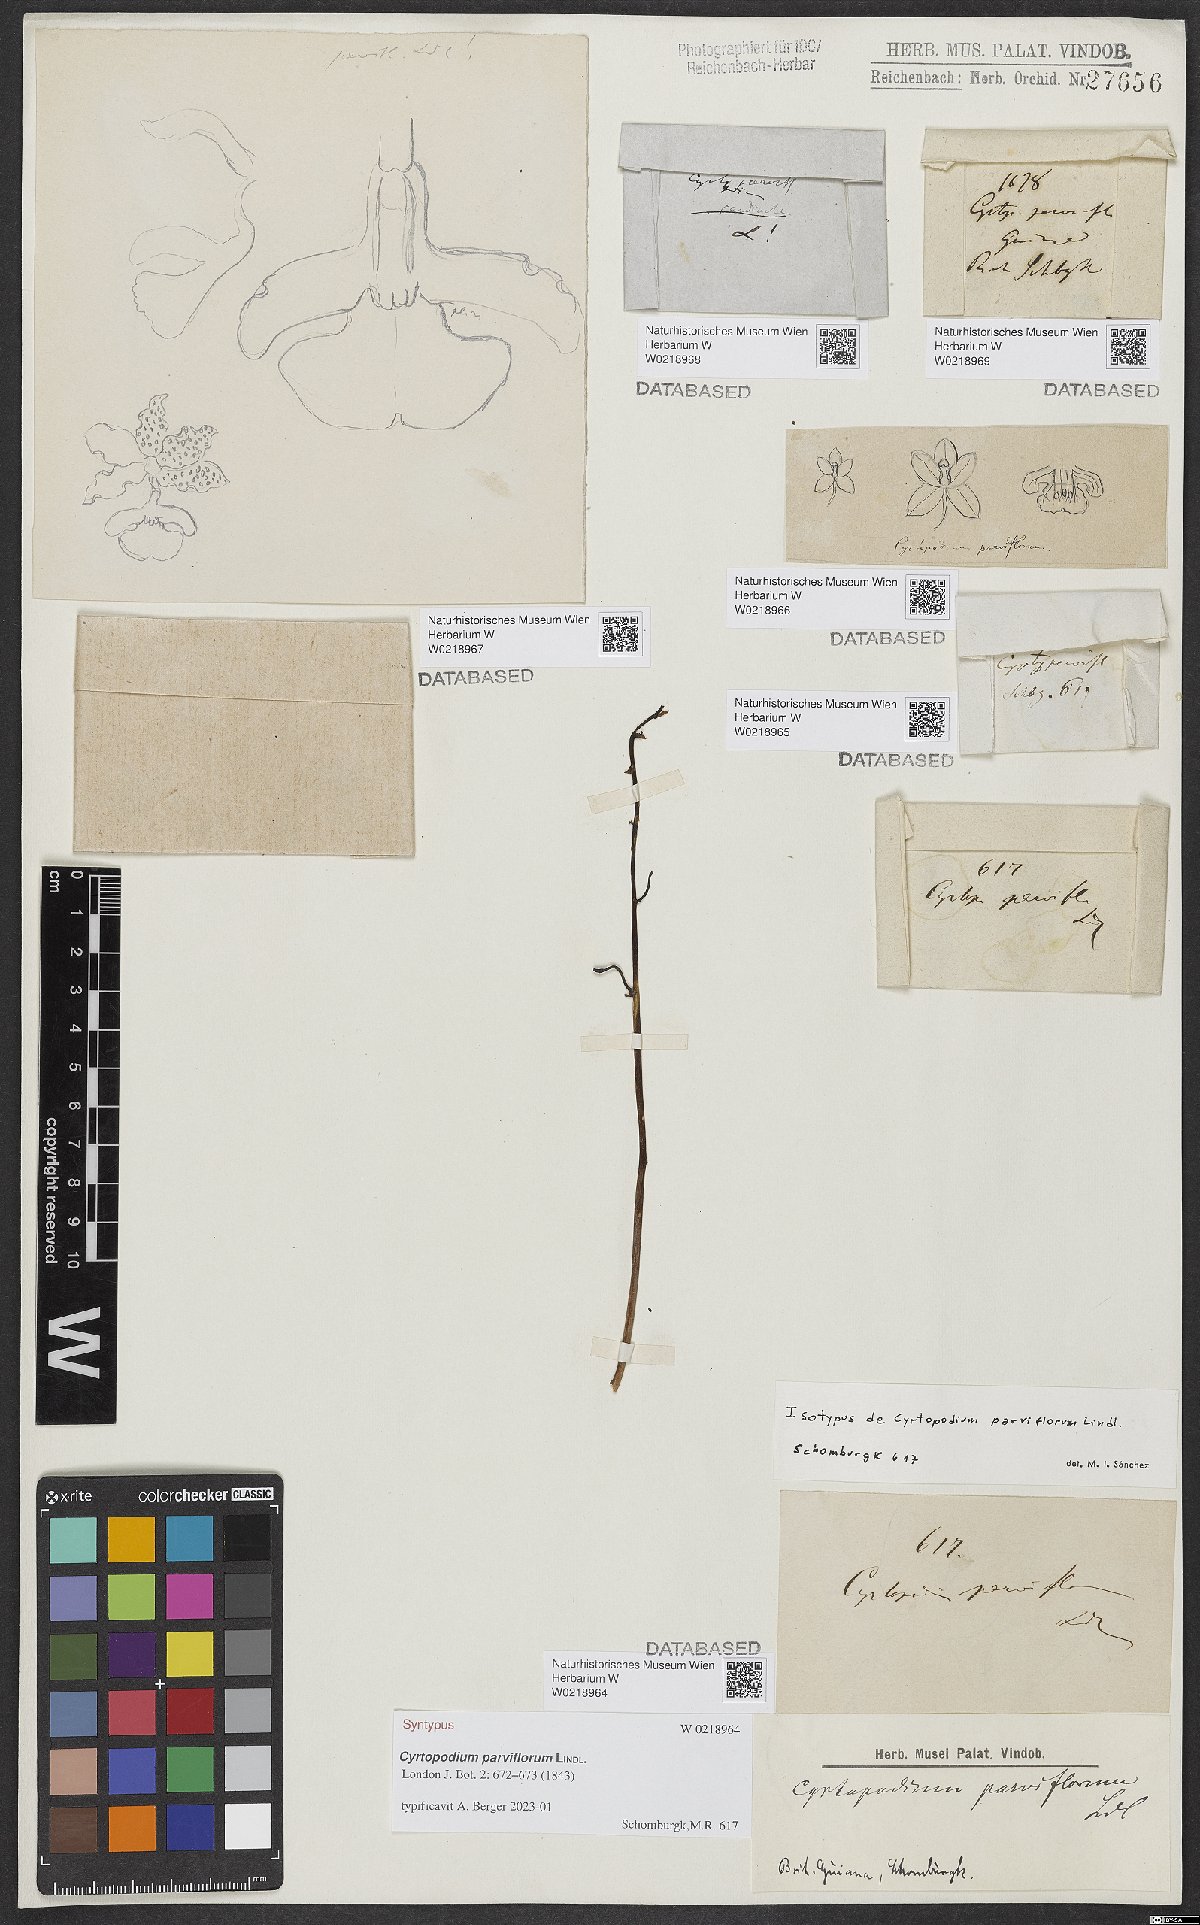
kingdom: Plantae
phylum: Tracheophyta
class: Liliopsida
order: Asparagales
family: Orchidaceae
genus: Cyrtopodium
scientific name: Cyrtopodium parviflorum
